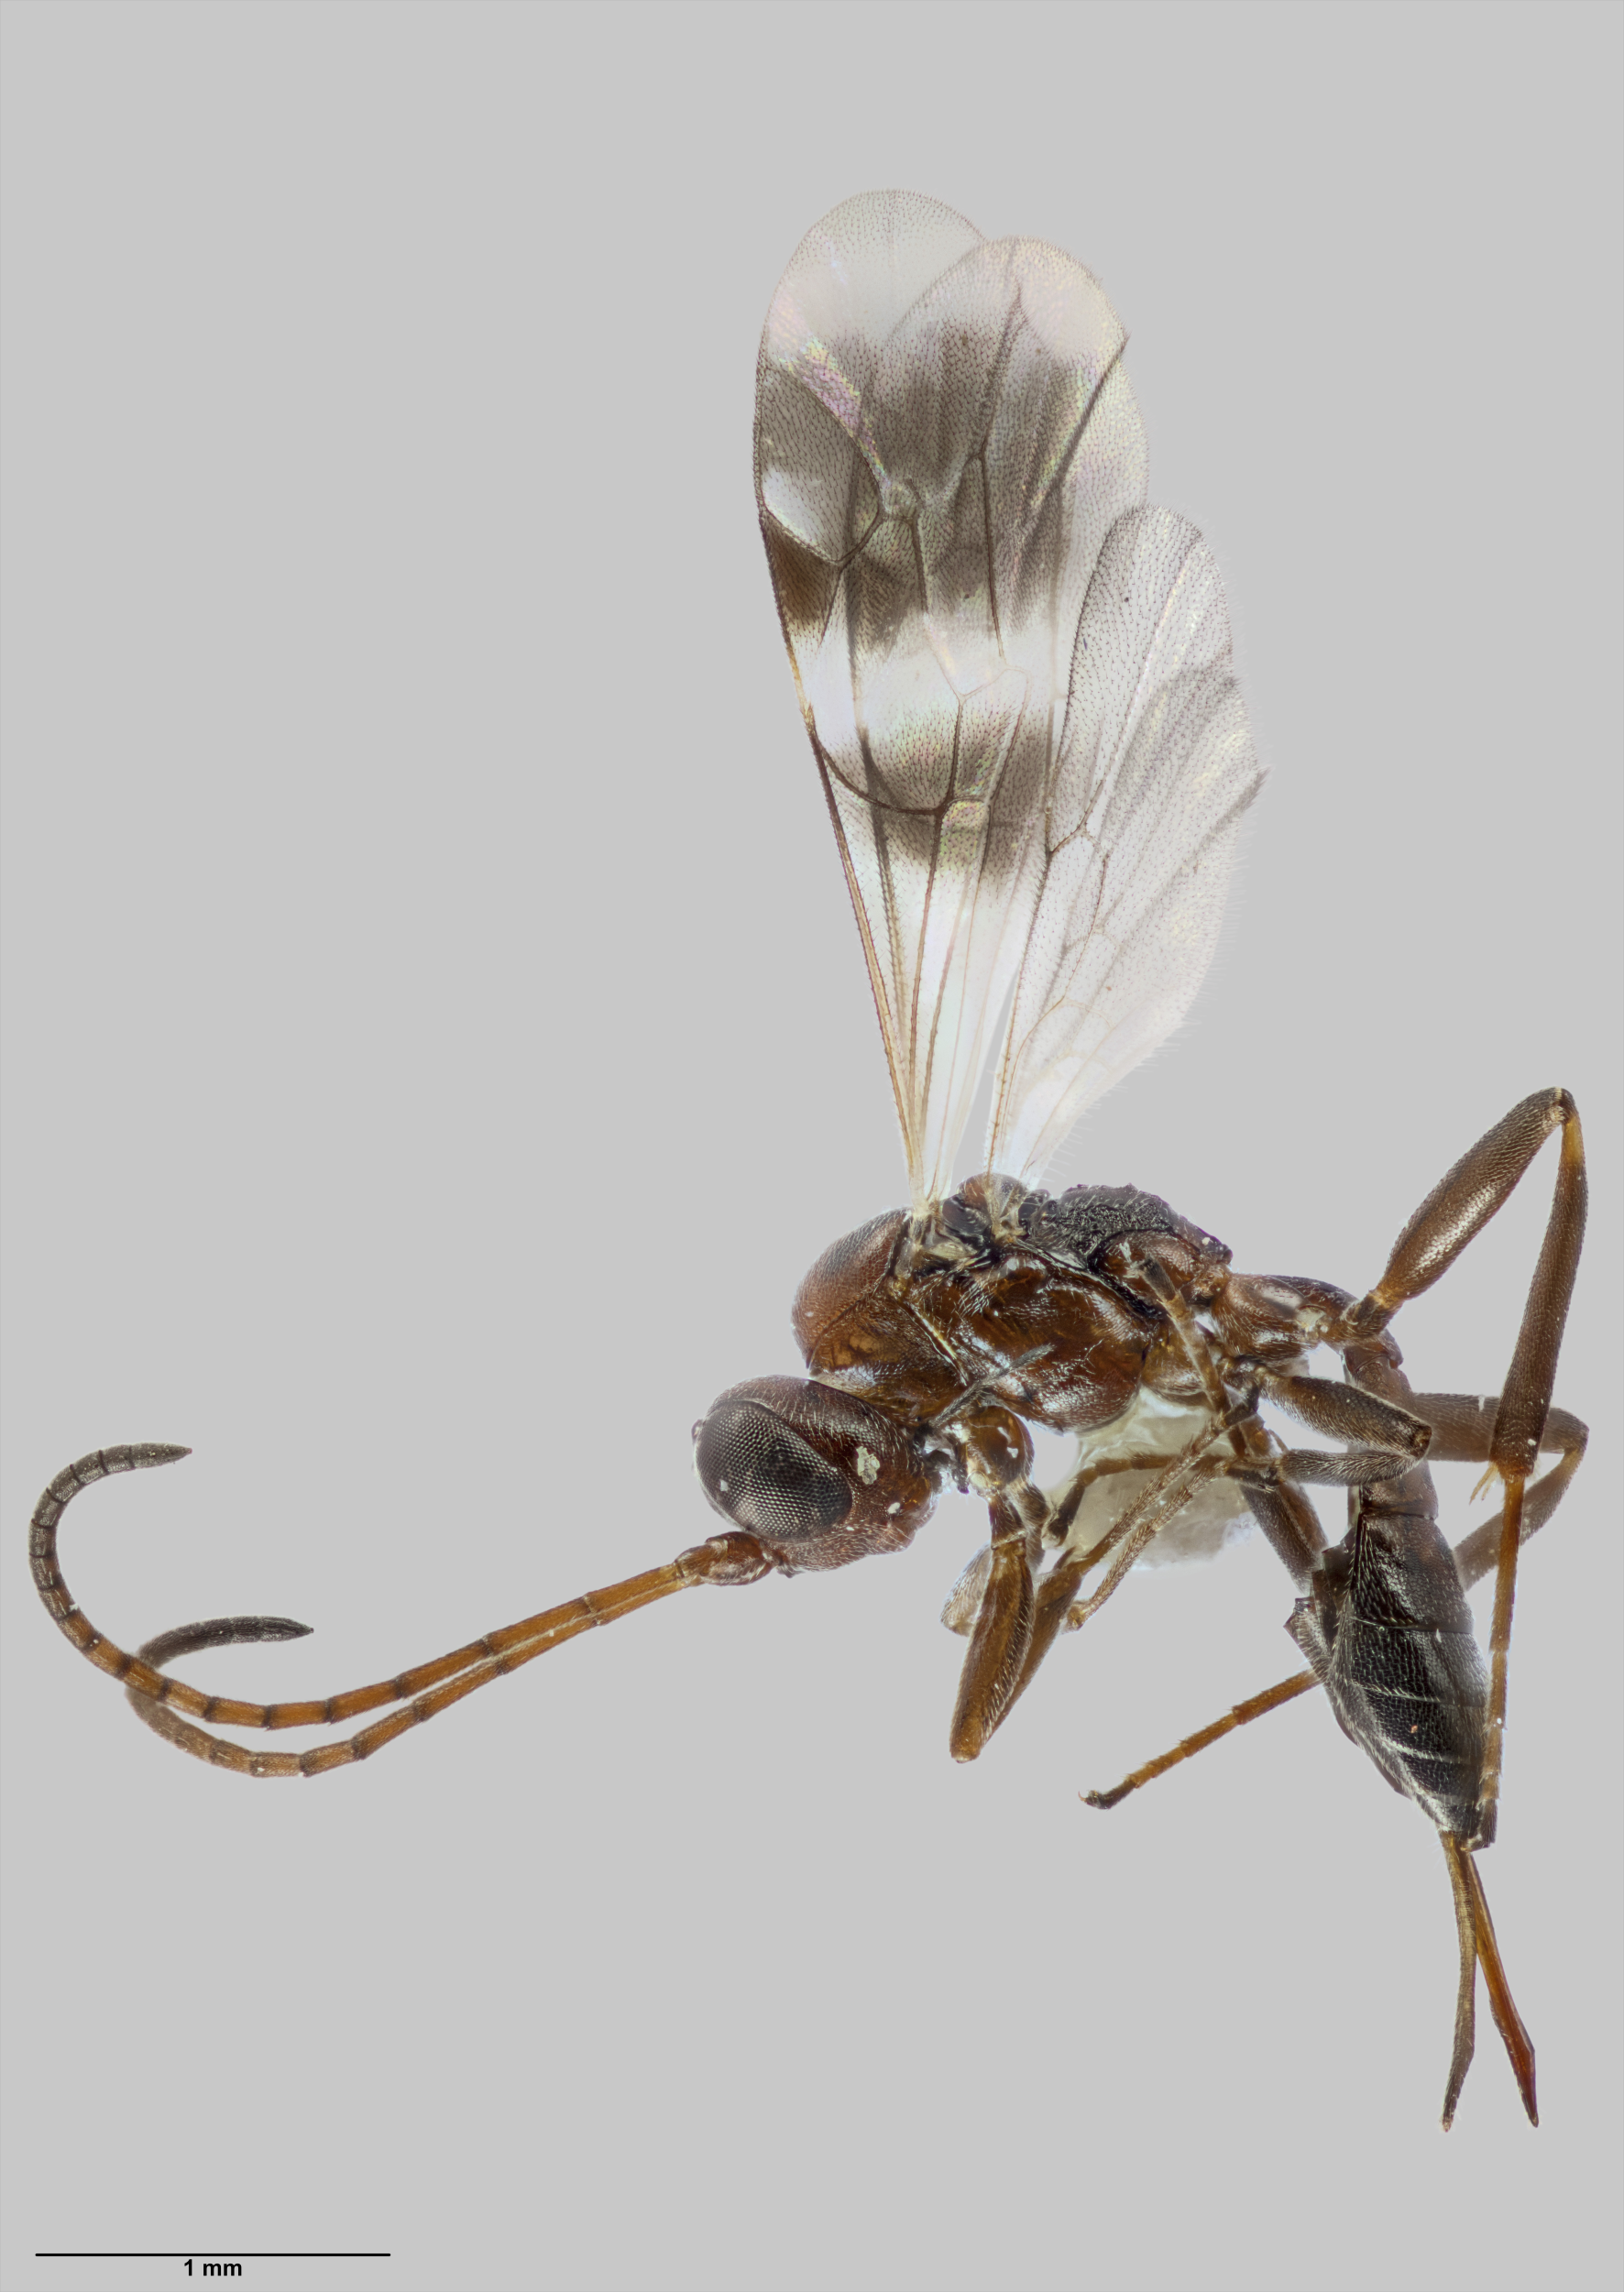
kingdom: Animalia
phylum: Arthropoda
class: Insecta
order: Hymenoptera
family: Ichneumonidae
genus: Gelis
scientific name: Gelis tenellus
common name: Parasitoid wasp
